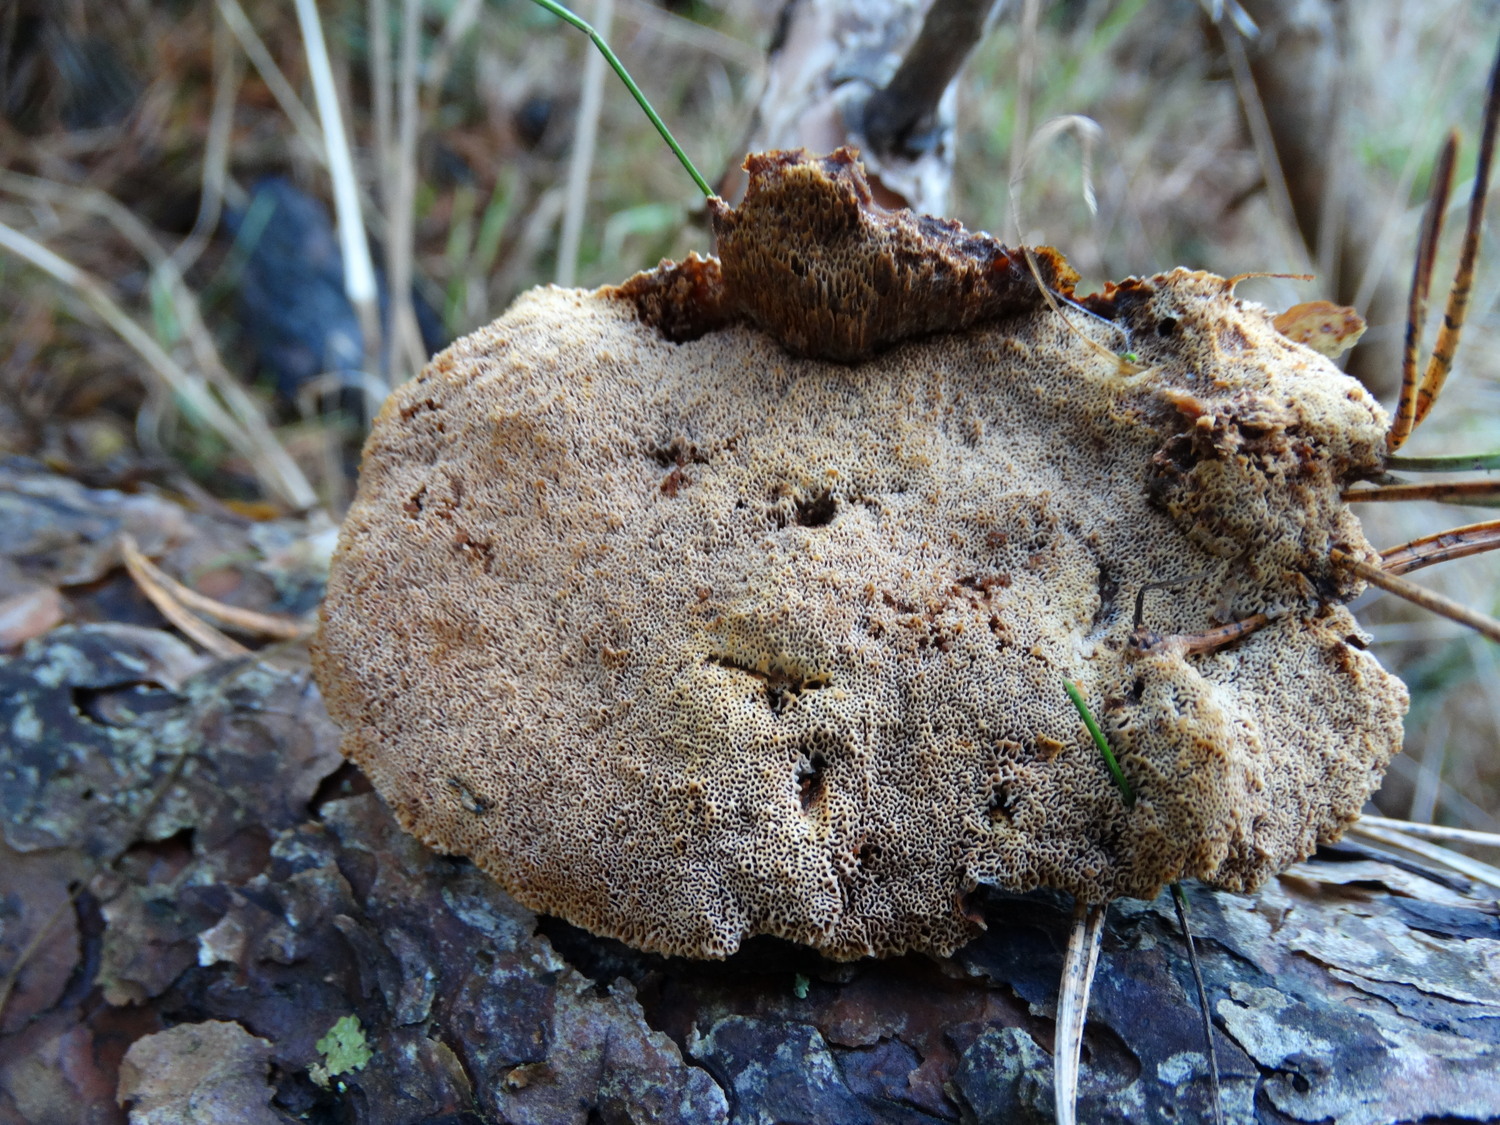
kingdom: Fungi
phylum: Basidiomycota
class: Agaricomycetes
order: Polyporales
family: Ischnodermataceae
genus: Ischnoderma
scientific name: Ischnoderma benzoinum
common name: gran-tjæreporesvamp
